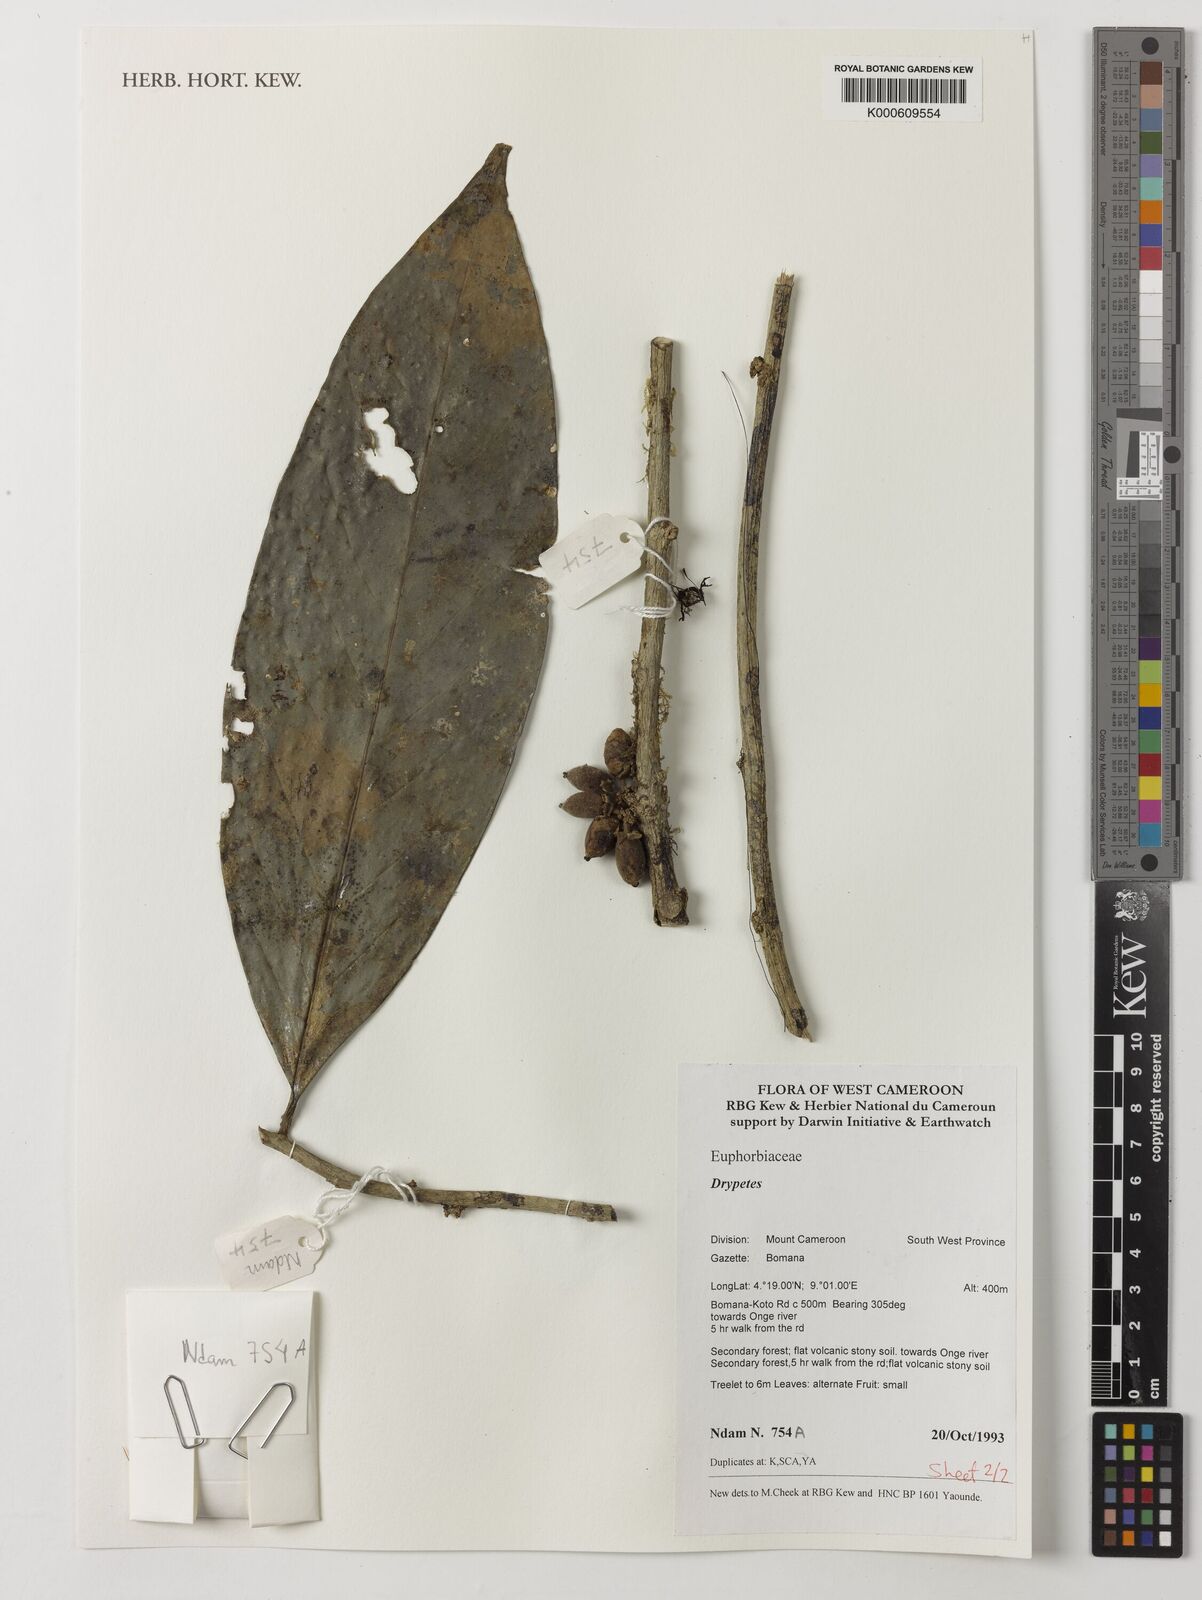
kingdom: Plantae
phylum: Tracheophyta
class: Magnoliopsida
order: Malpighiales
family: Putranjivaceae
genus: Drypetes
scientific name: Drypetes
